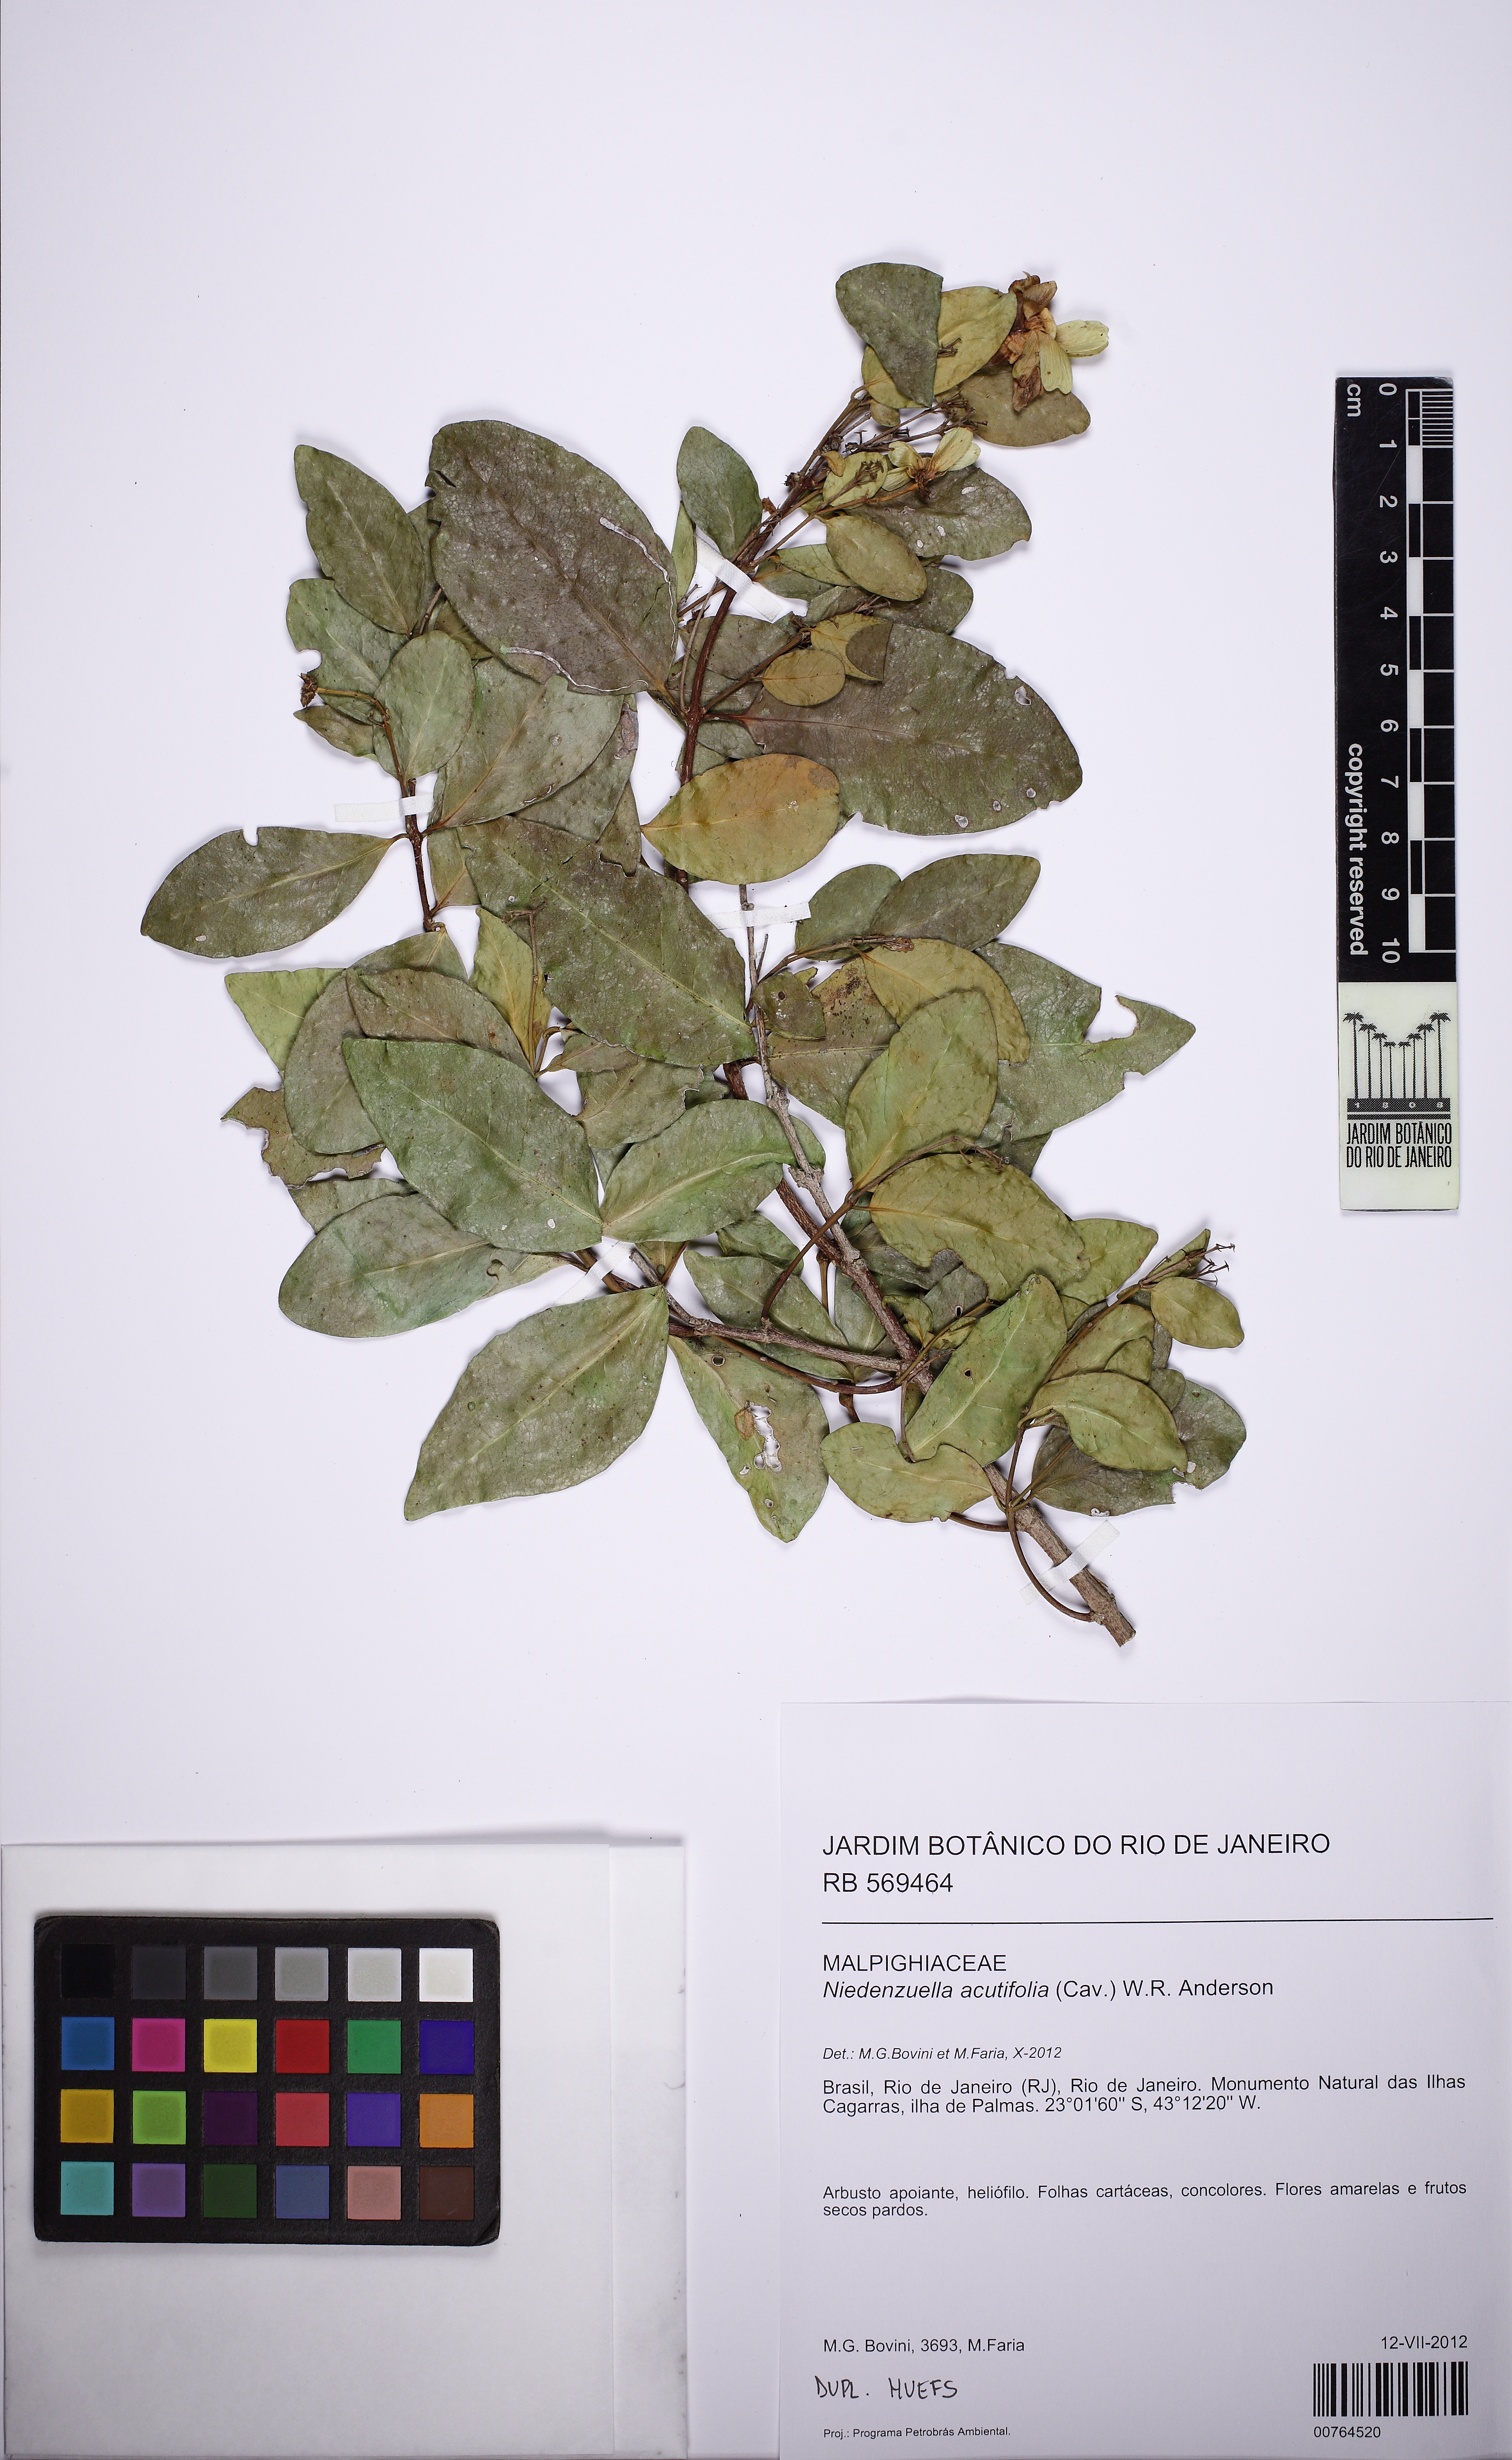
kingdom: Plantae
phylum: Tracheophyta
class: Magnoliopsida
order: Malpighiales
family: Malpighiaceae
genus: Niedenzuella
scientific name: Niedenzuella acutifolia
